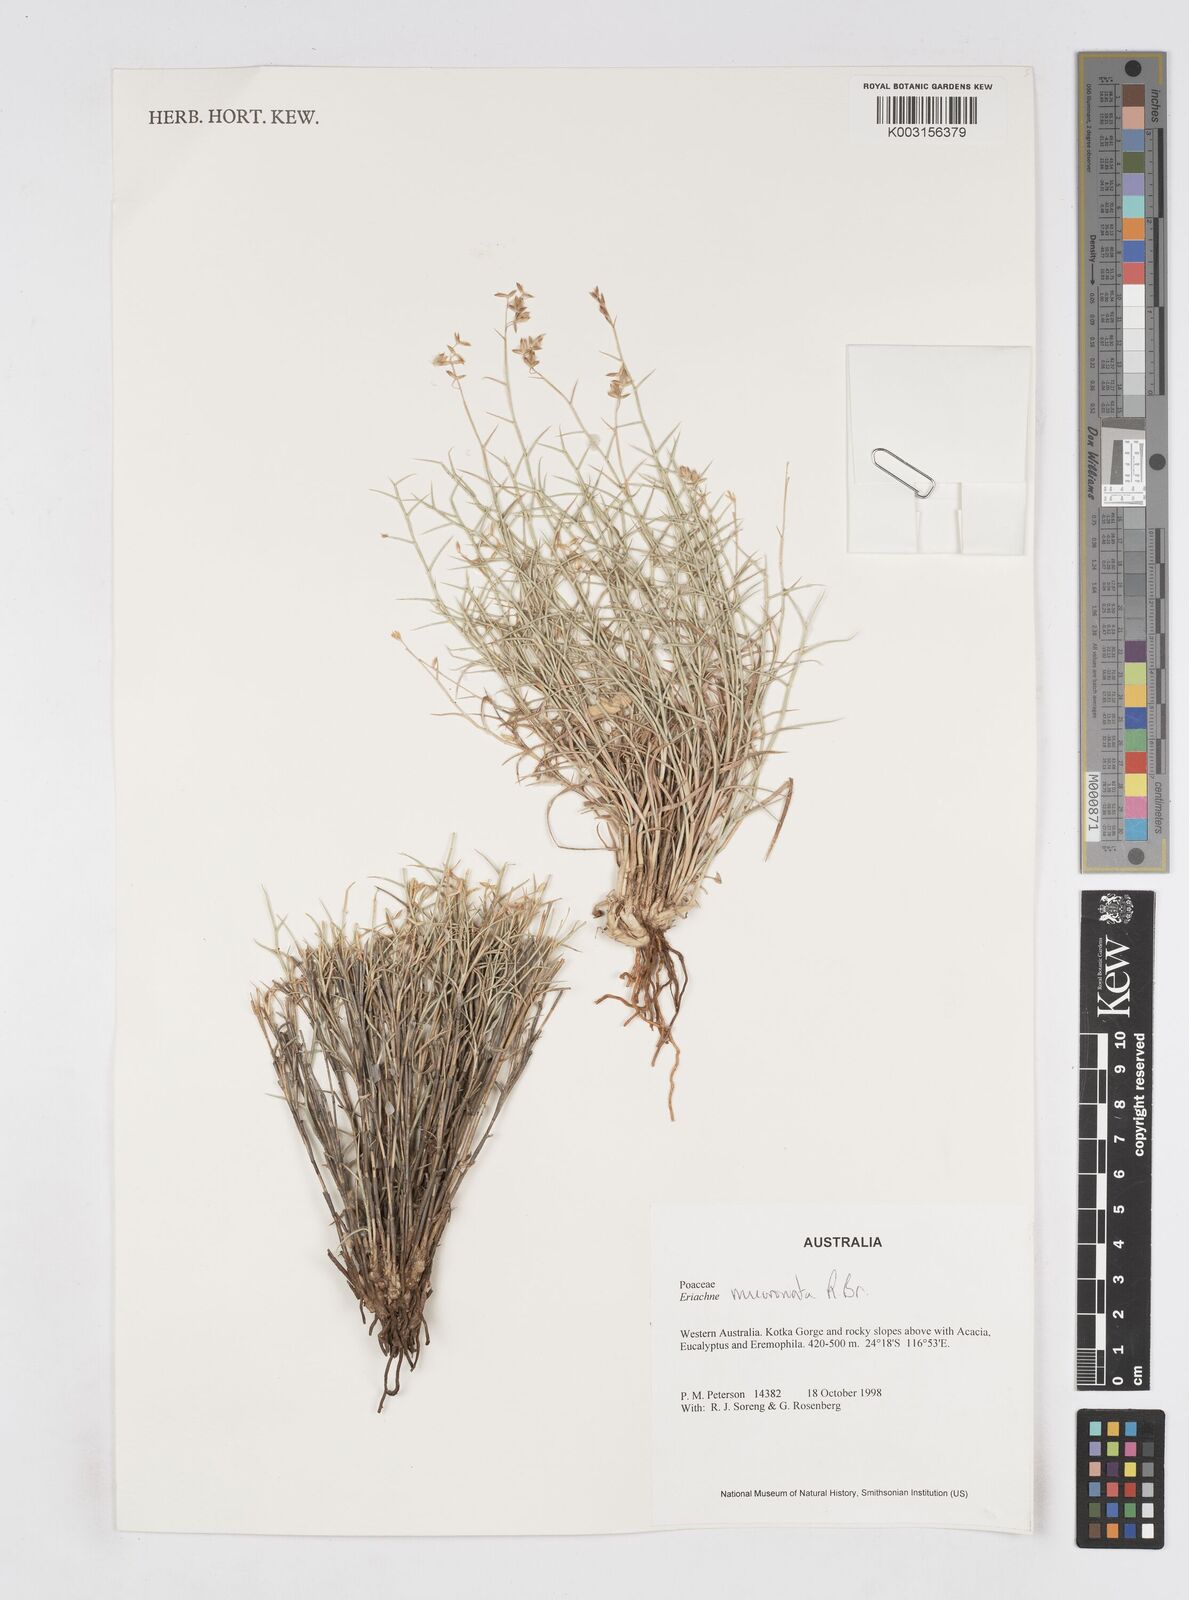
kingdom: Plantae
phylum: Tracheophyta
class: Liliopsida
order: Poales
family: Poaceae
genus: Eriachne
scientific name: Eriachne mucronata
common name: Mountain wanderrie grass
